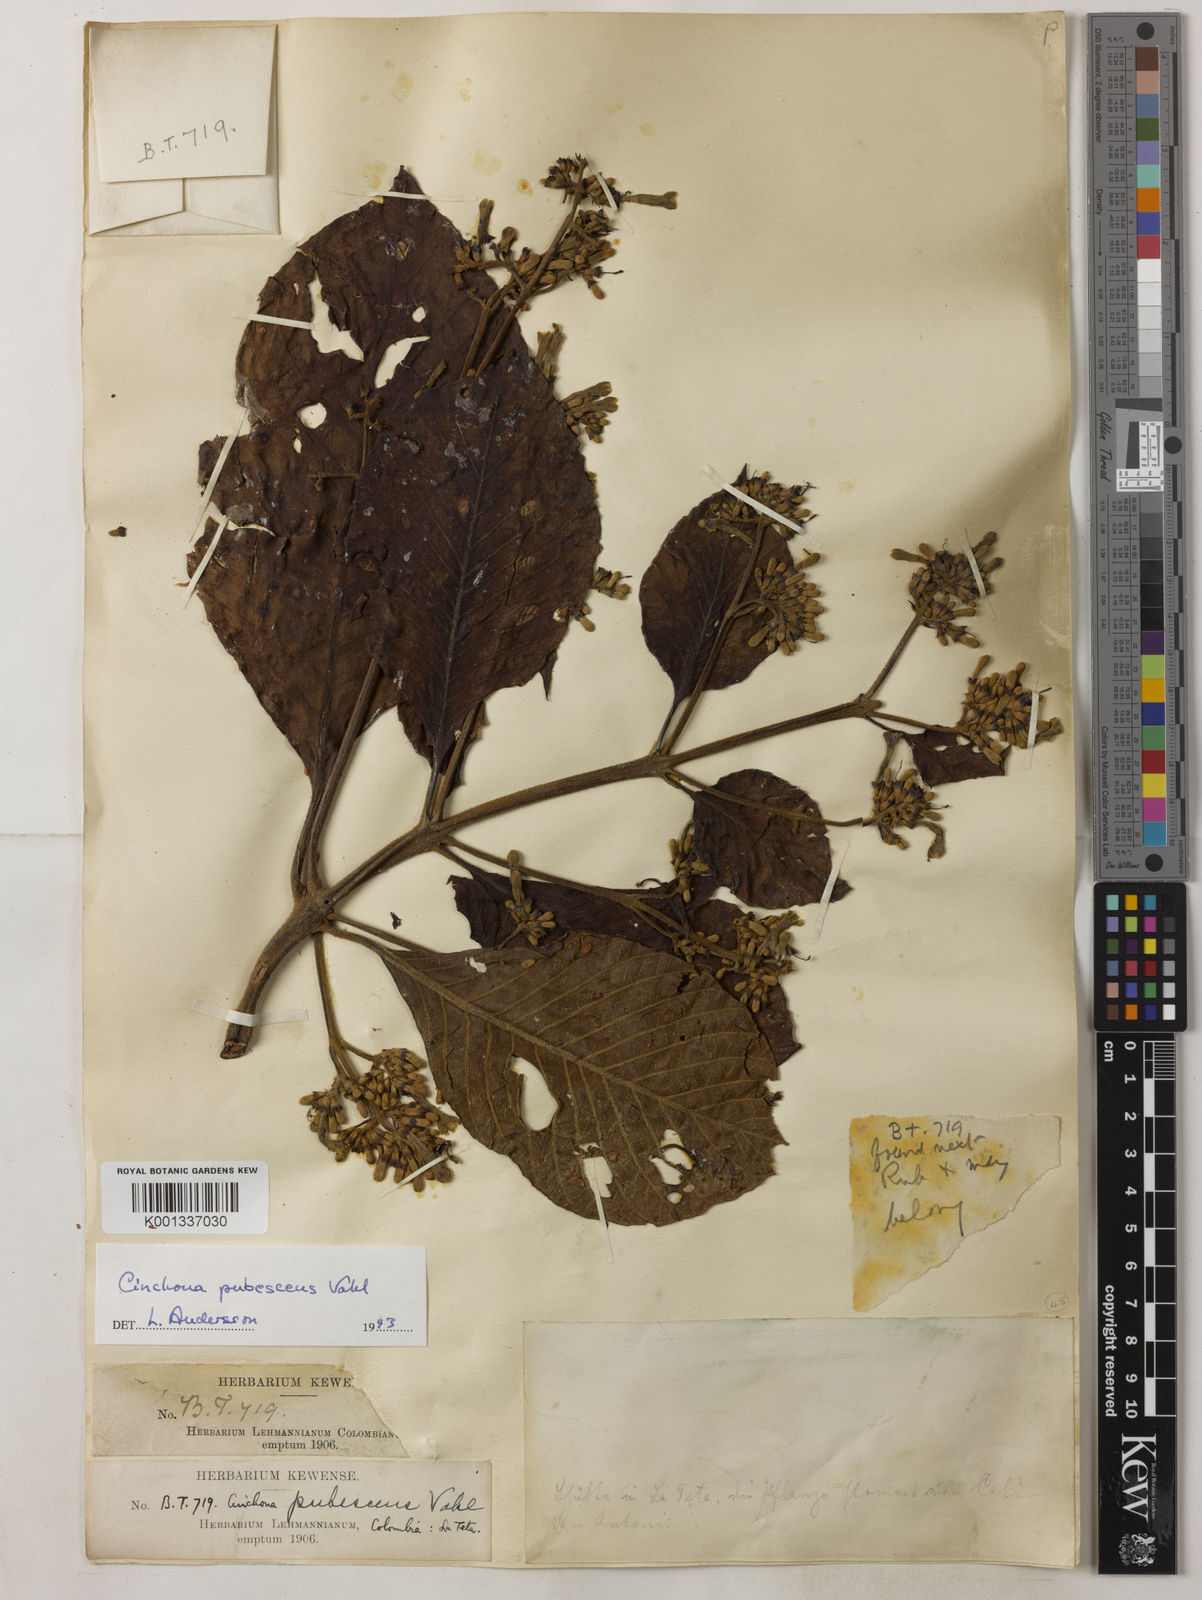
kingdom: Plantae
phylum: Tracheophyta
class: Magnoliopsida
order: Gentianales
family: Rubiaceae
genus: Cinchona
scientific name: Cinchona pubescens
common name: Quinine
